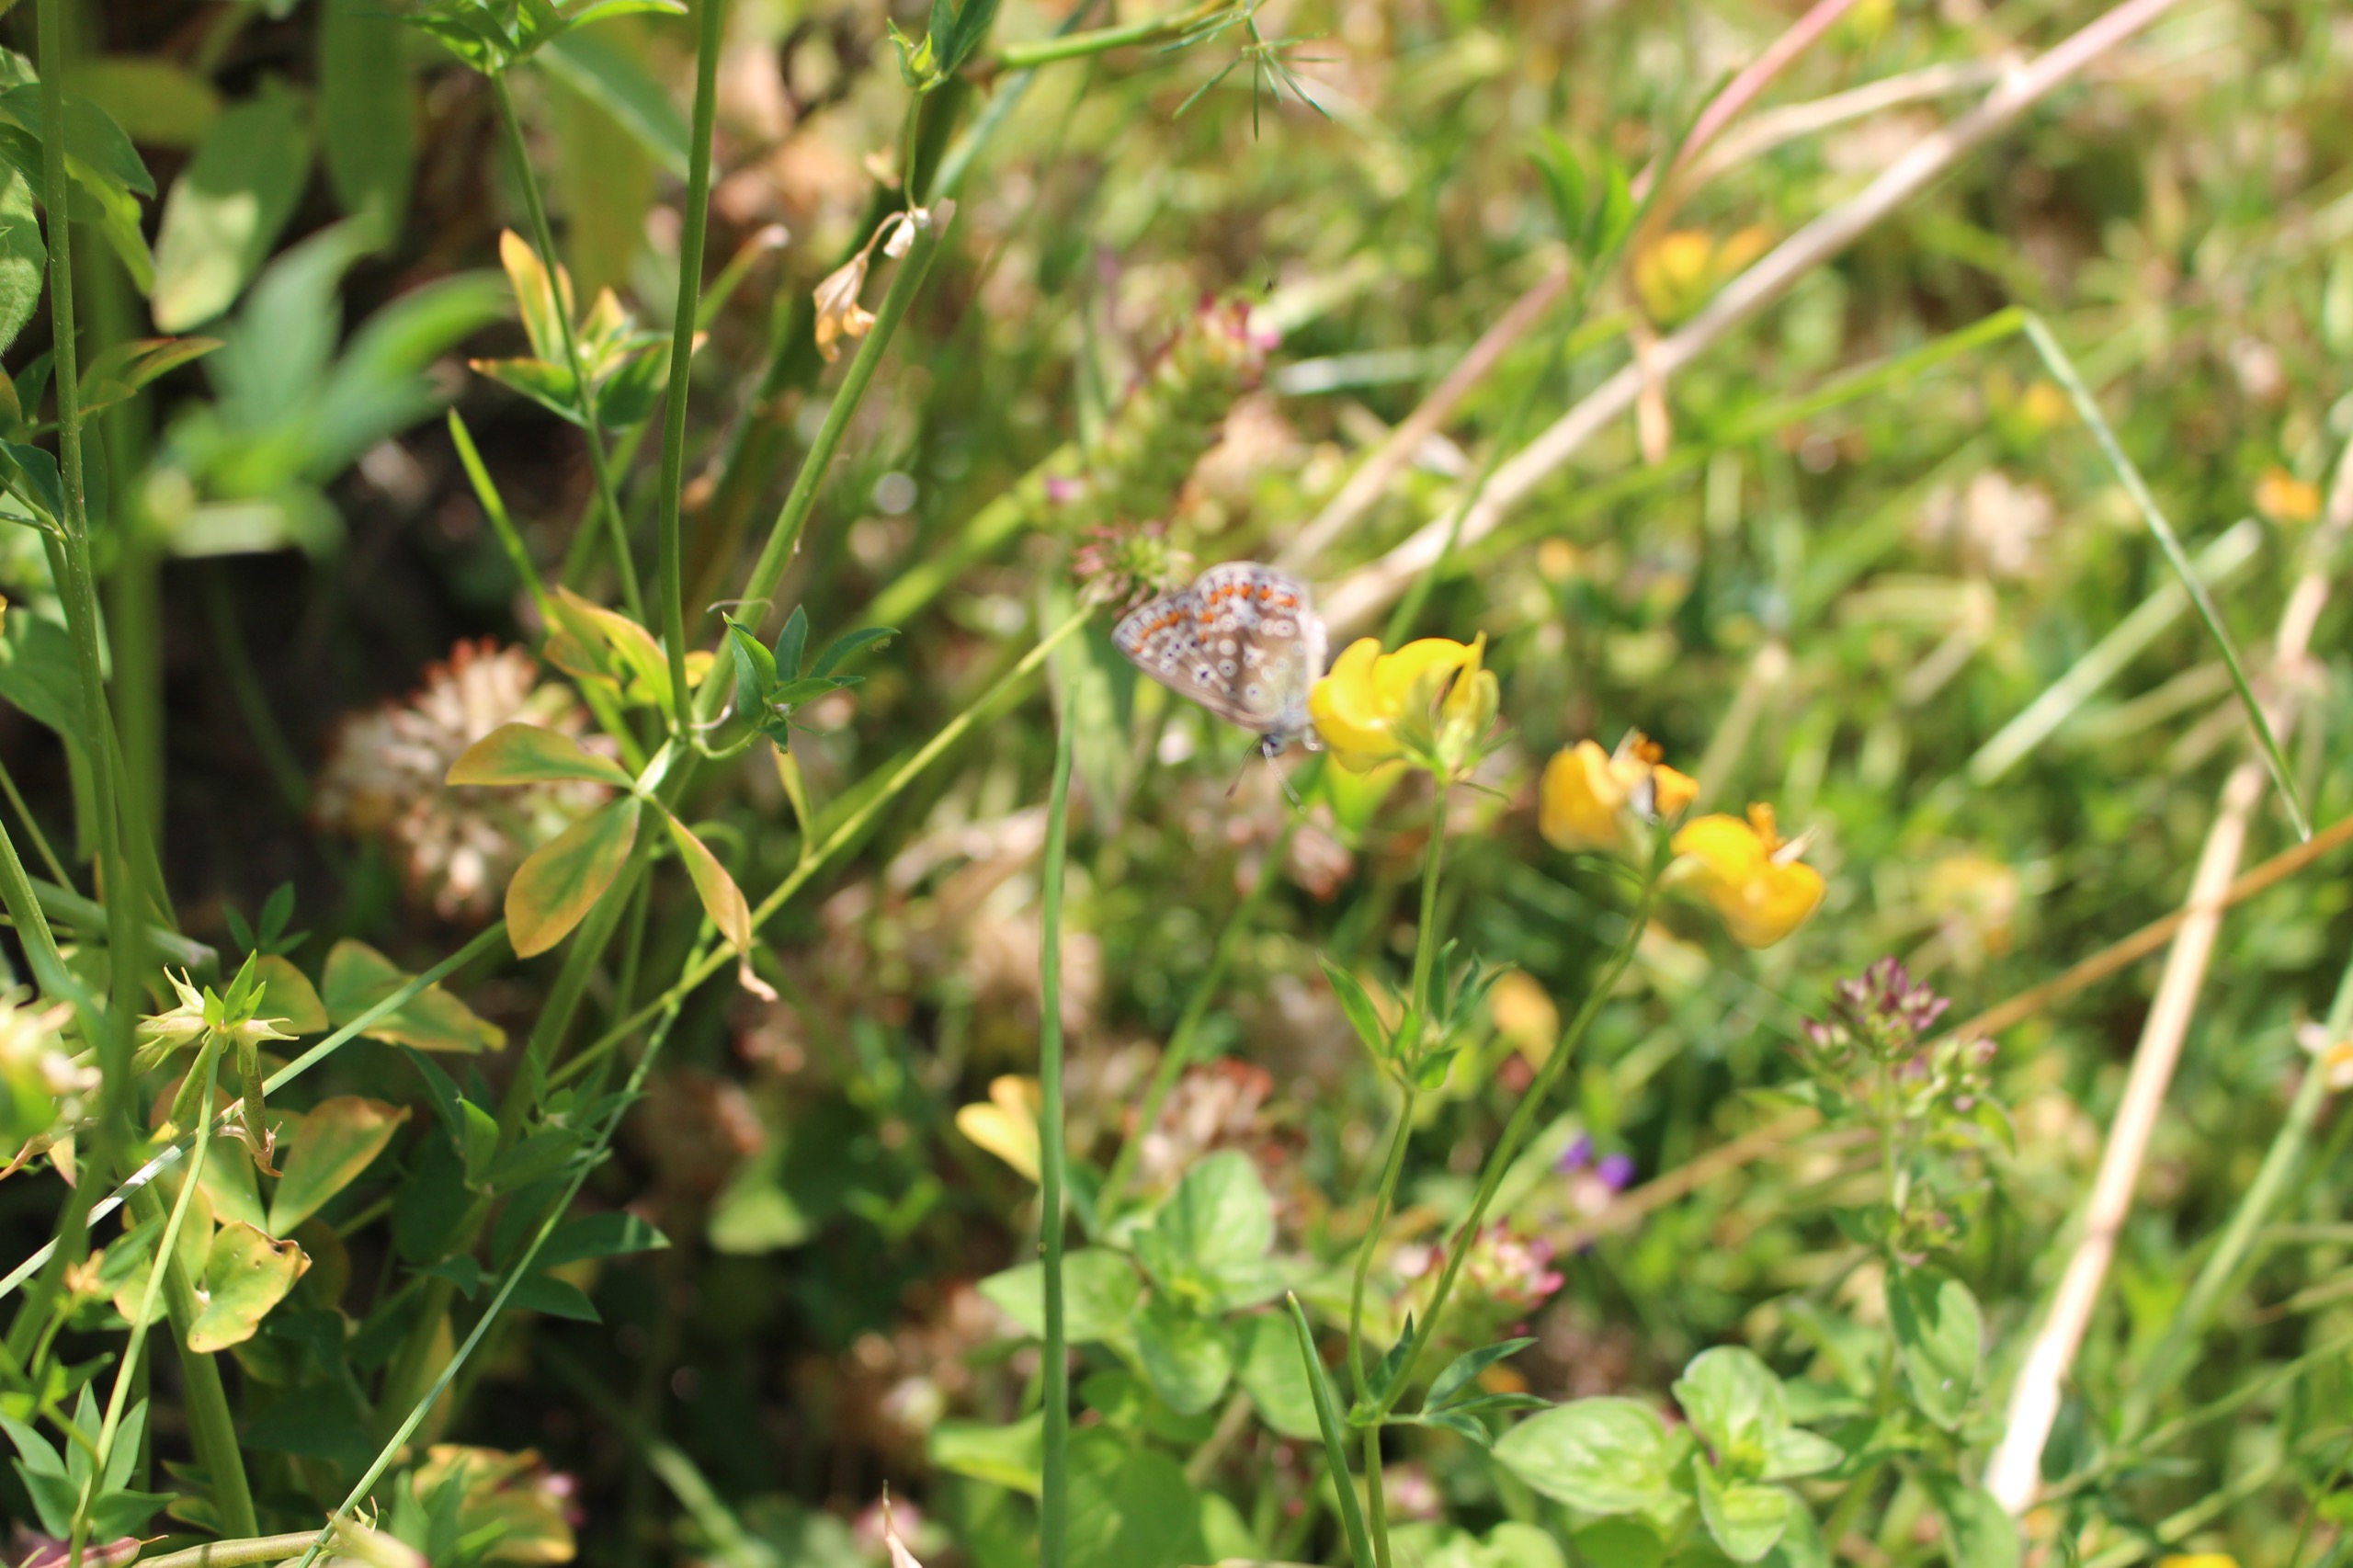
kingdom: Animalia
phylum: Arthropoda
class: Insecta
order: Lepidoptera
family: Lycaenidae
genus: Polyommatus
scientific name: Polyommatus icarus
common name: Almindelig blåfugl
